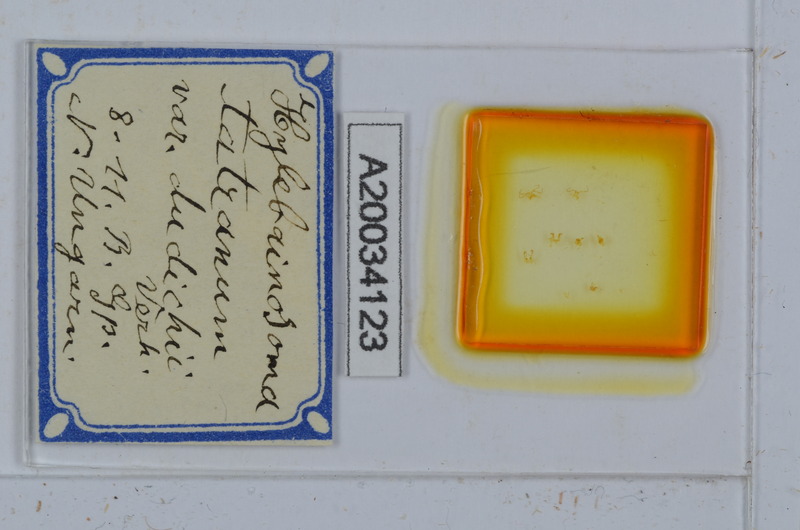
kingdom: Animalia
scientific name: Animalia
